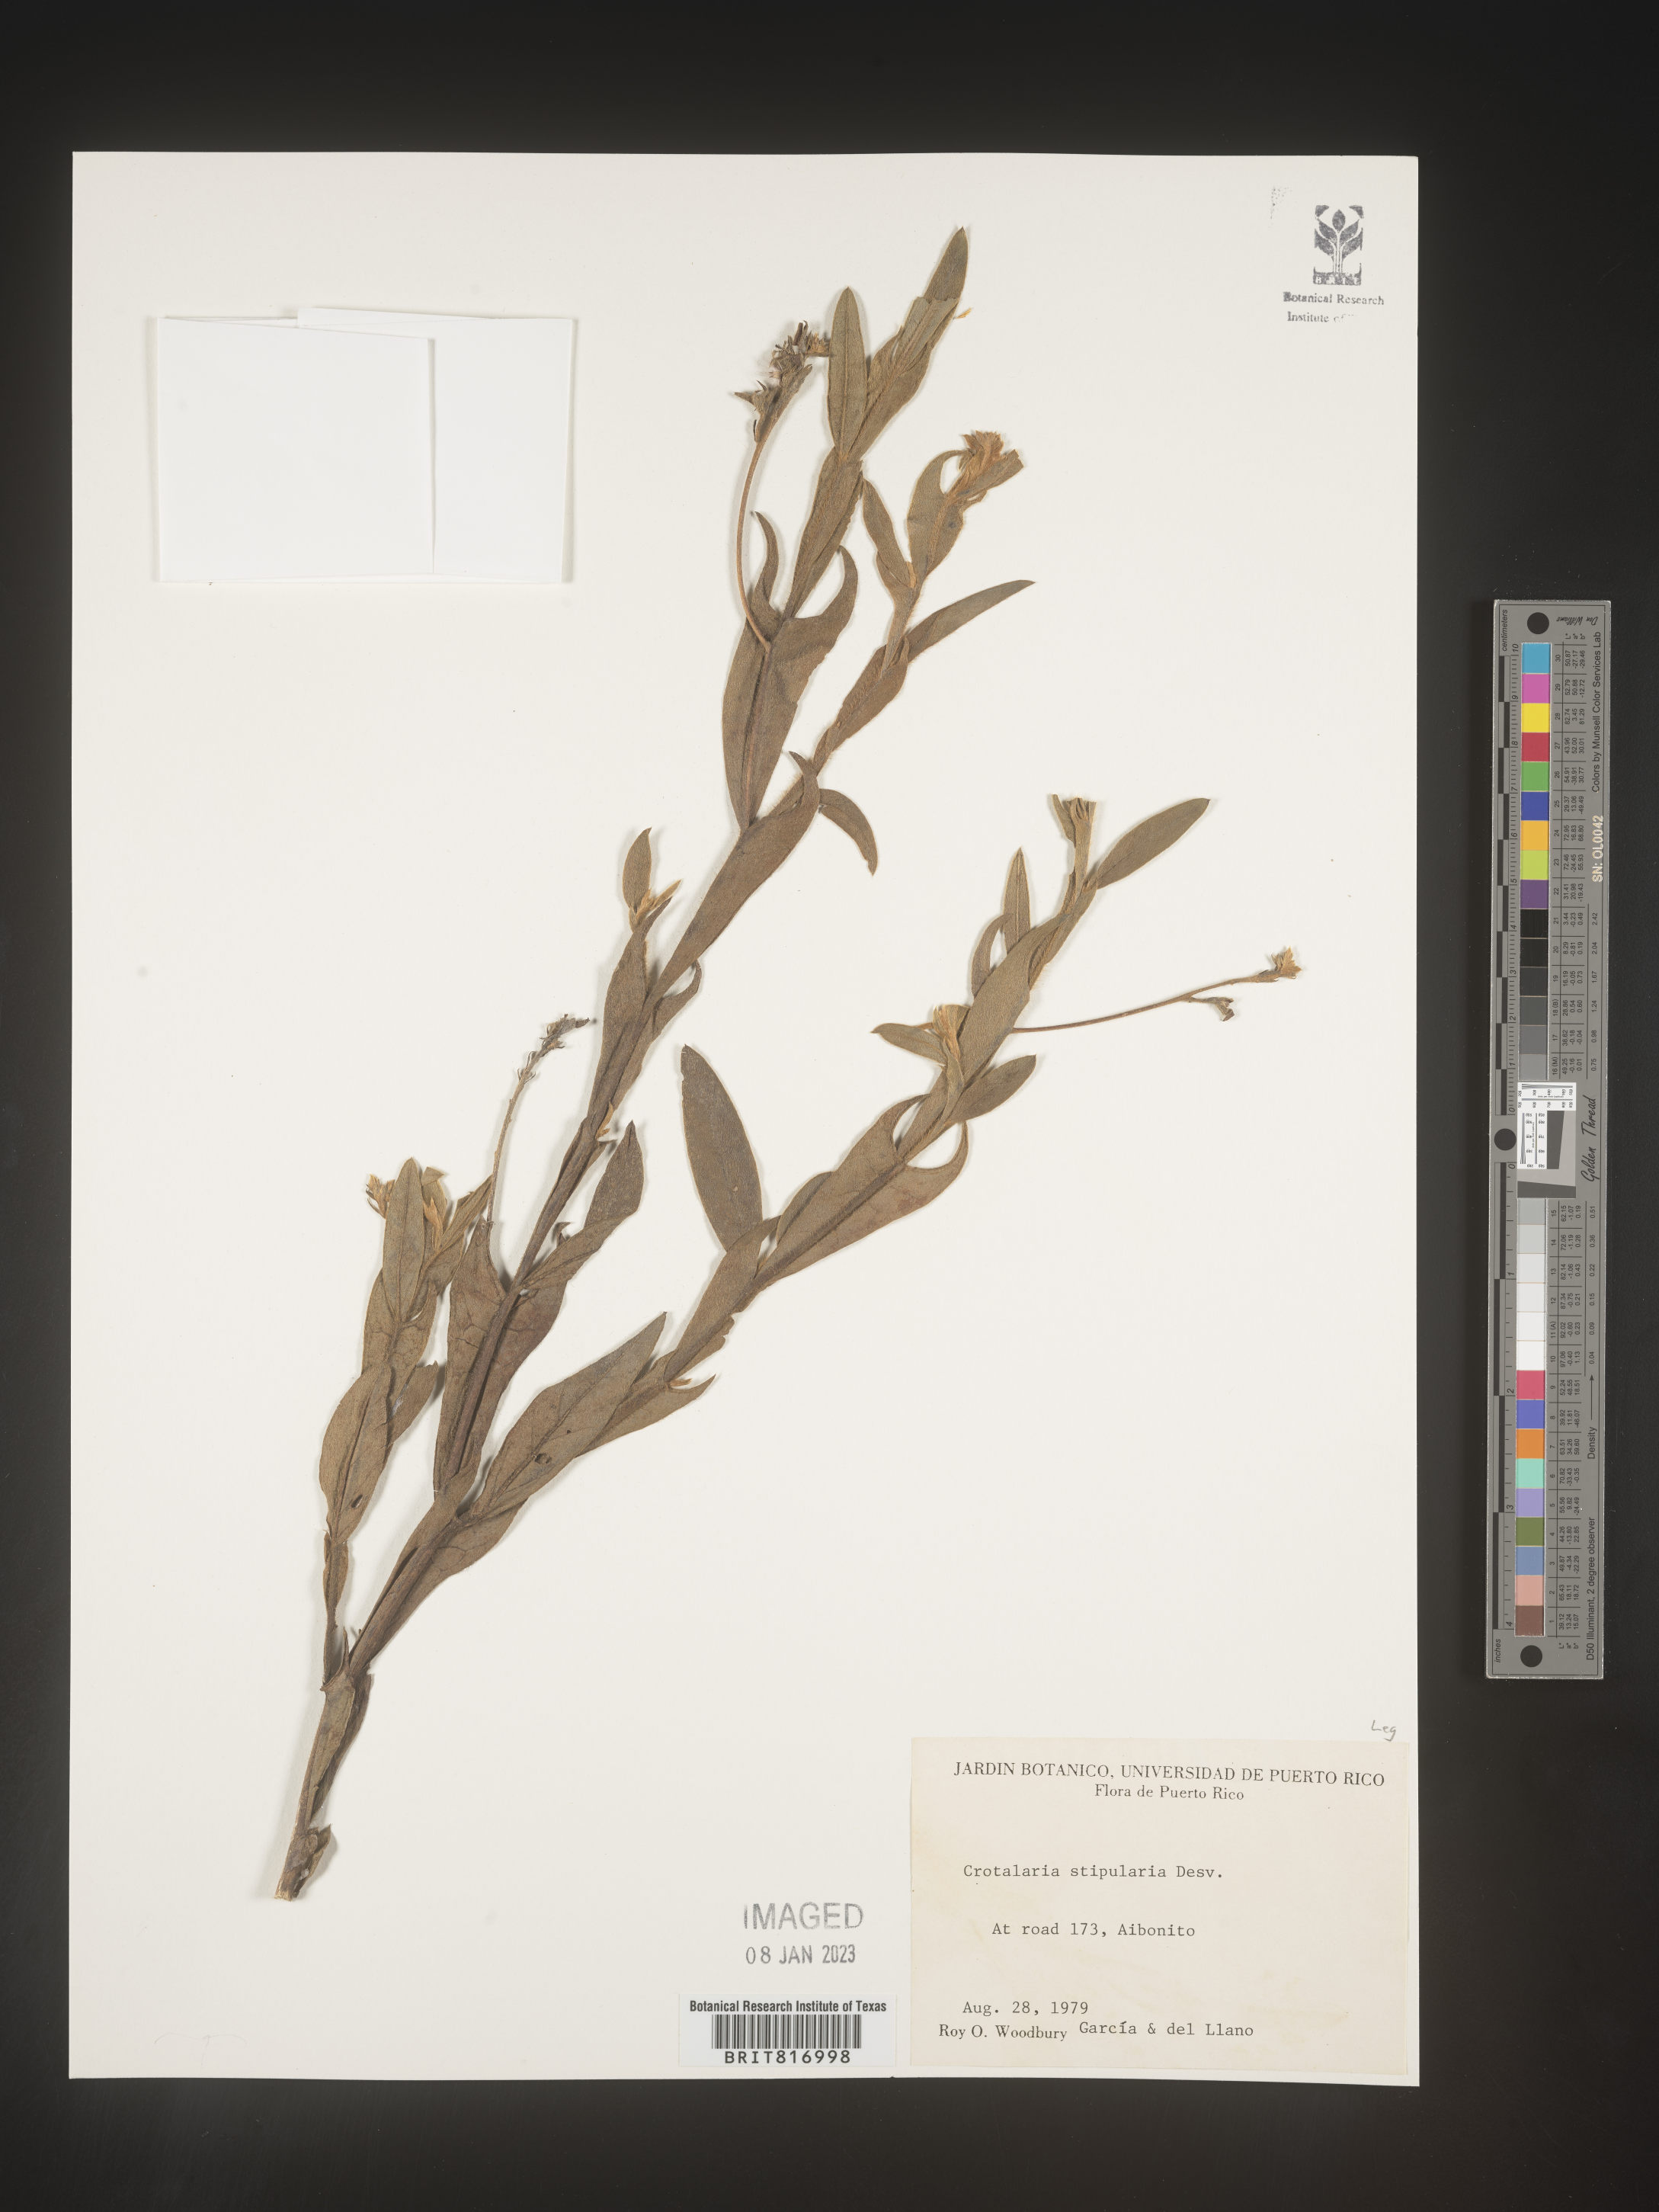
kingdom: Plantae
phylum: Tracheophyta
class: Magnoliopsida
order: Fabales
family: Fabaceae
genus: Crotalaria
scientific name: Crotalaria
